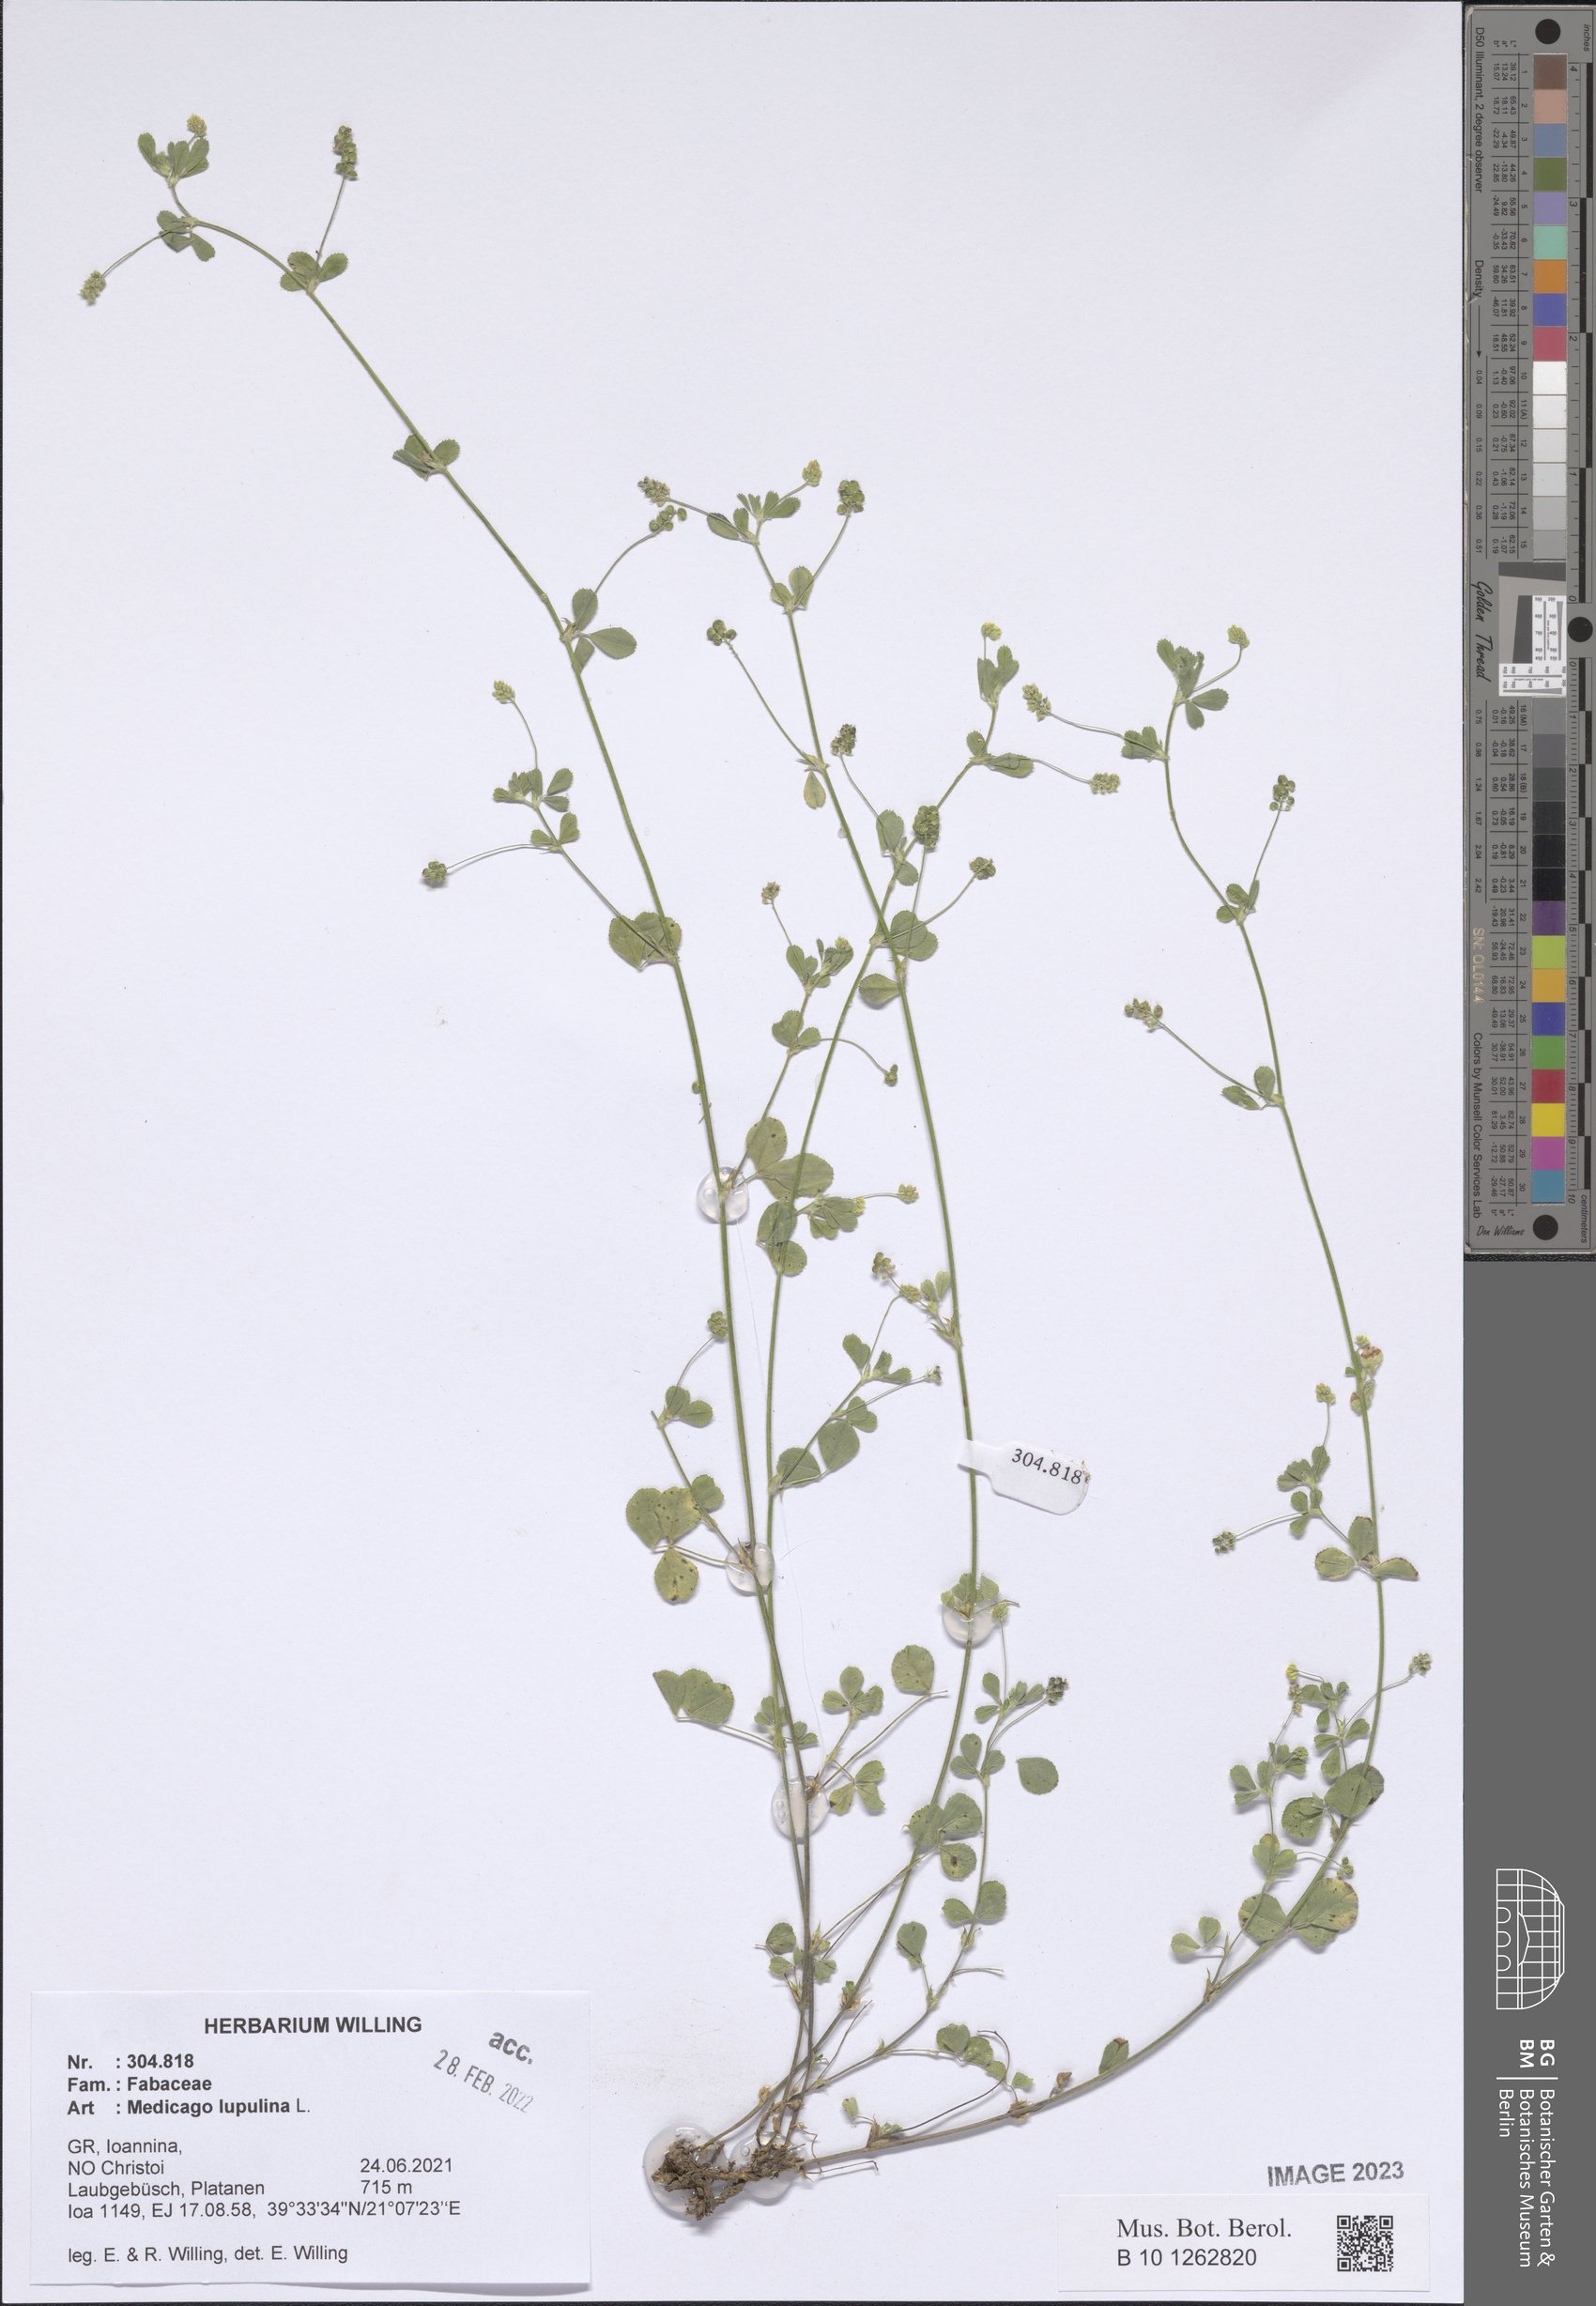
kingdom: Plantae
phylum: Tracheophyta
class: Magnoliopsida
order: Fabales
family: Fabaceae
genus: Medicago
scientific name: Medicago lupulina
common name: Black medick
